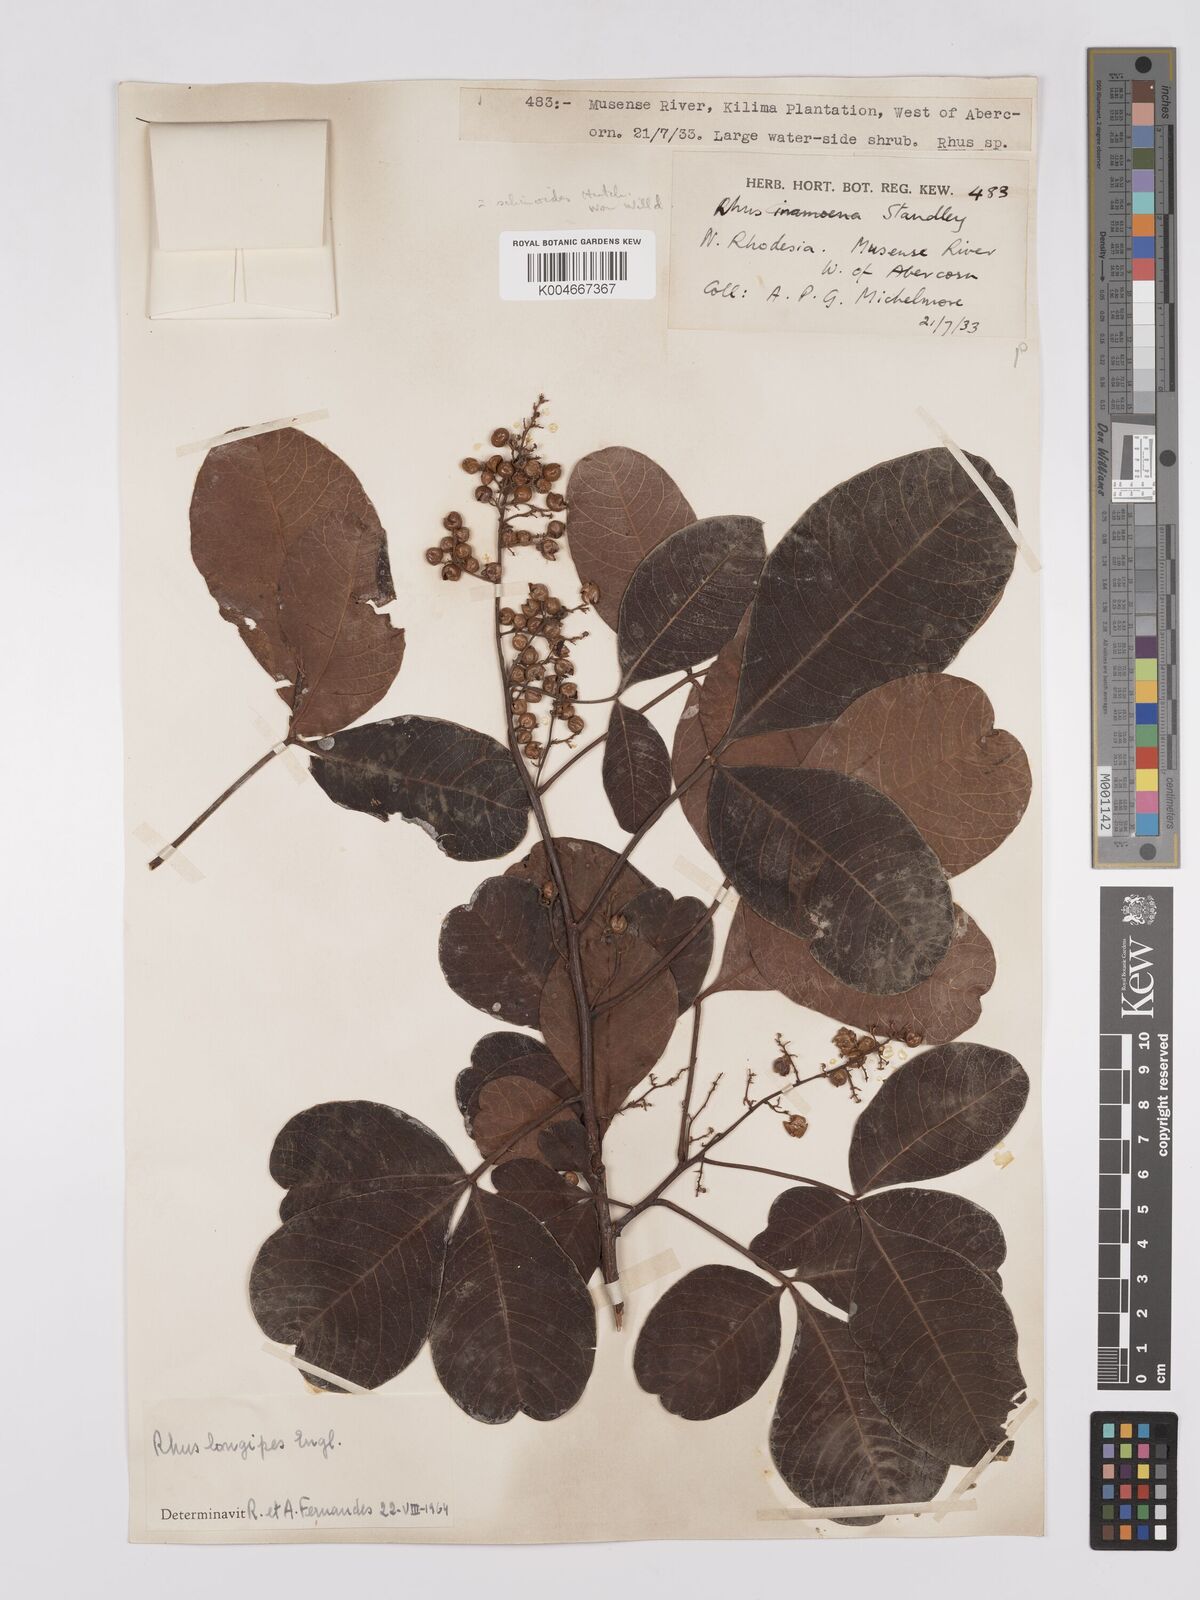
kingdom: Plantae
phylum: Tracheophyta
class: Magnoliopsida
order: Sapindales
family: Anacardiaceae
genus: Searsia
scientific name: Searsia longipes
